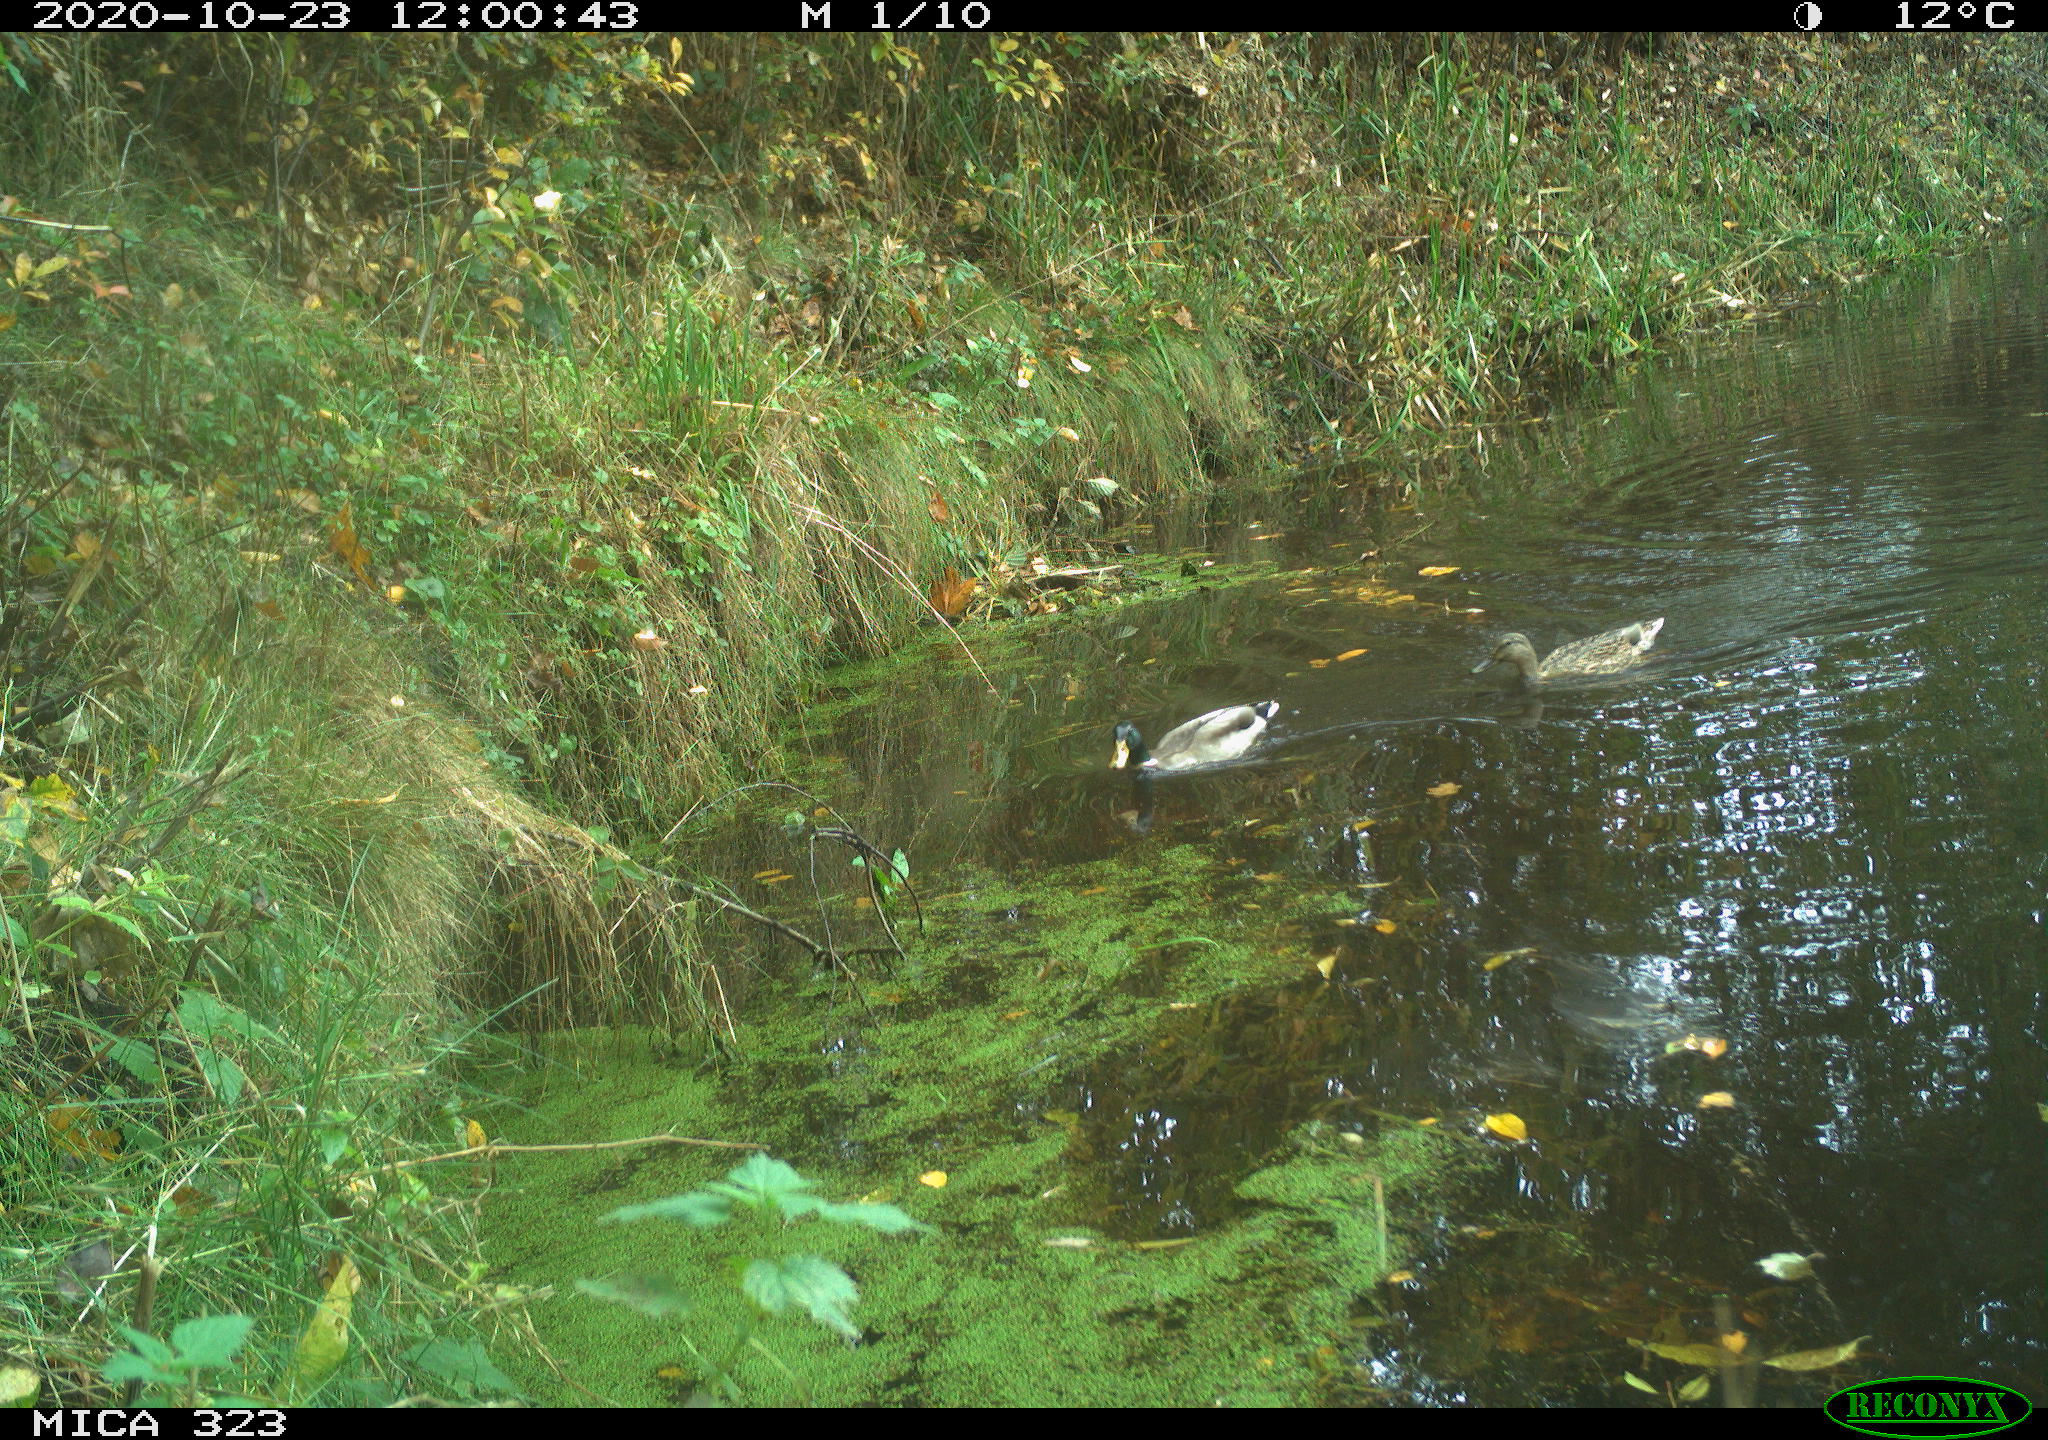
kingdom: Animalia
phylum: Chordata
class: Aves
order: Anseriformes
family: Anatidae
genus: Anas
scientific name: Anas platyrhynchos
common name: Mallard
